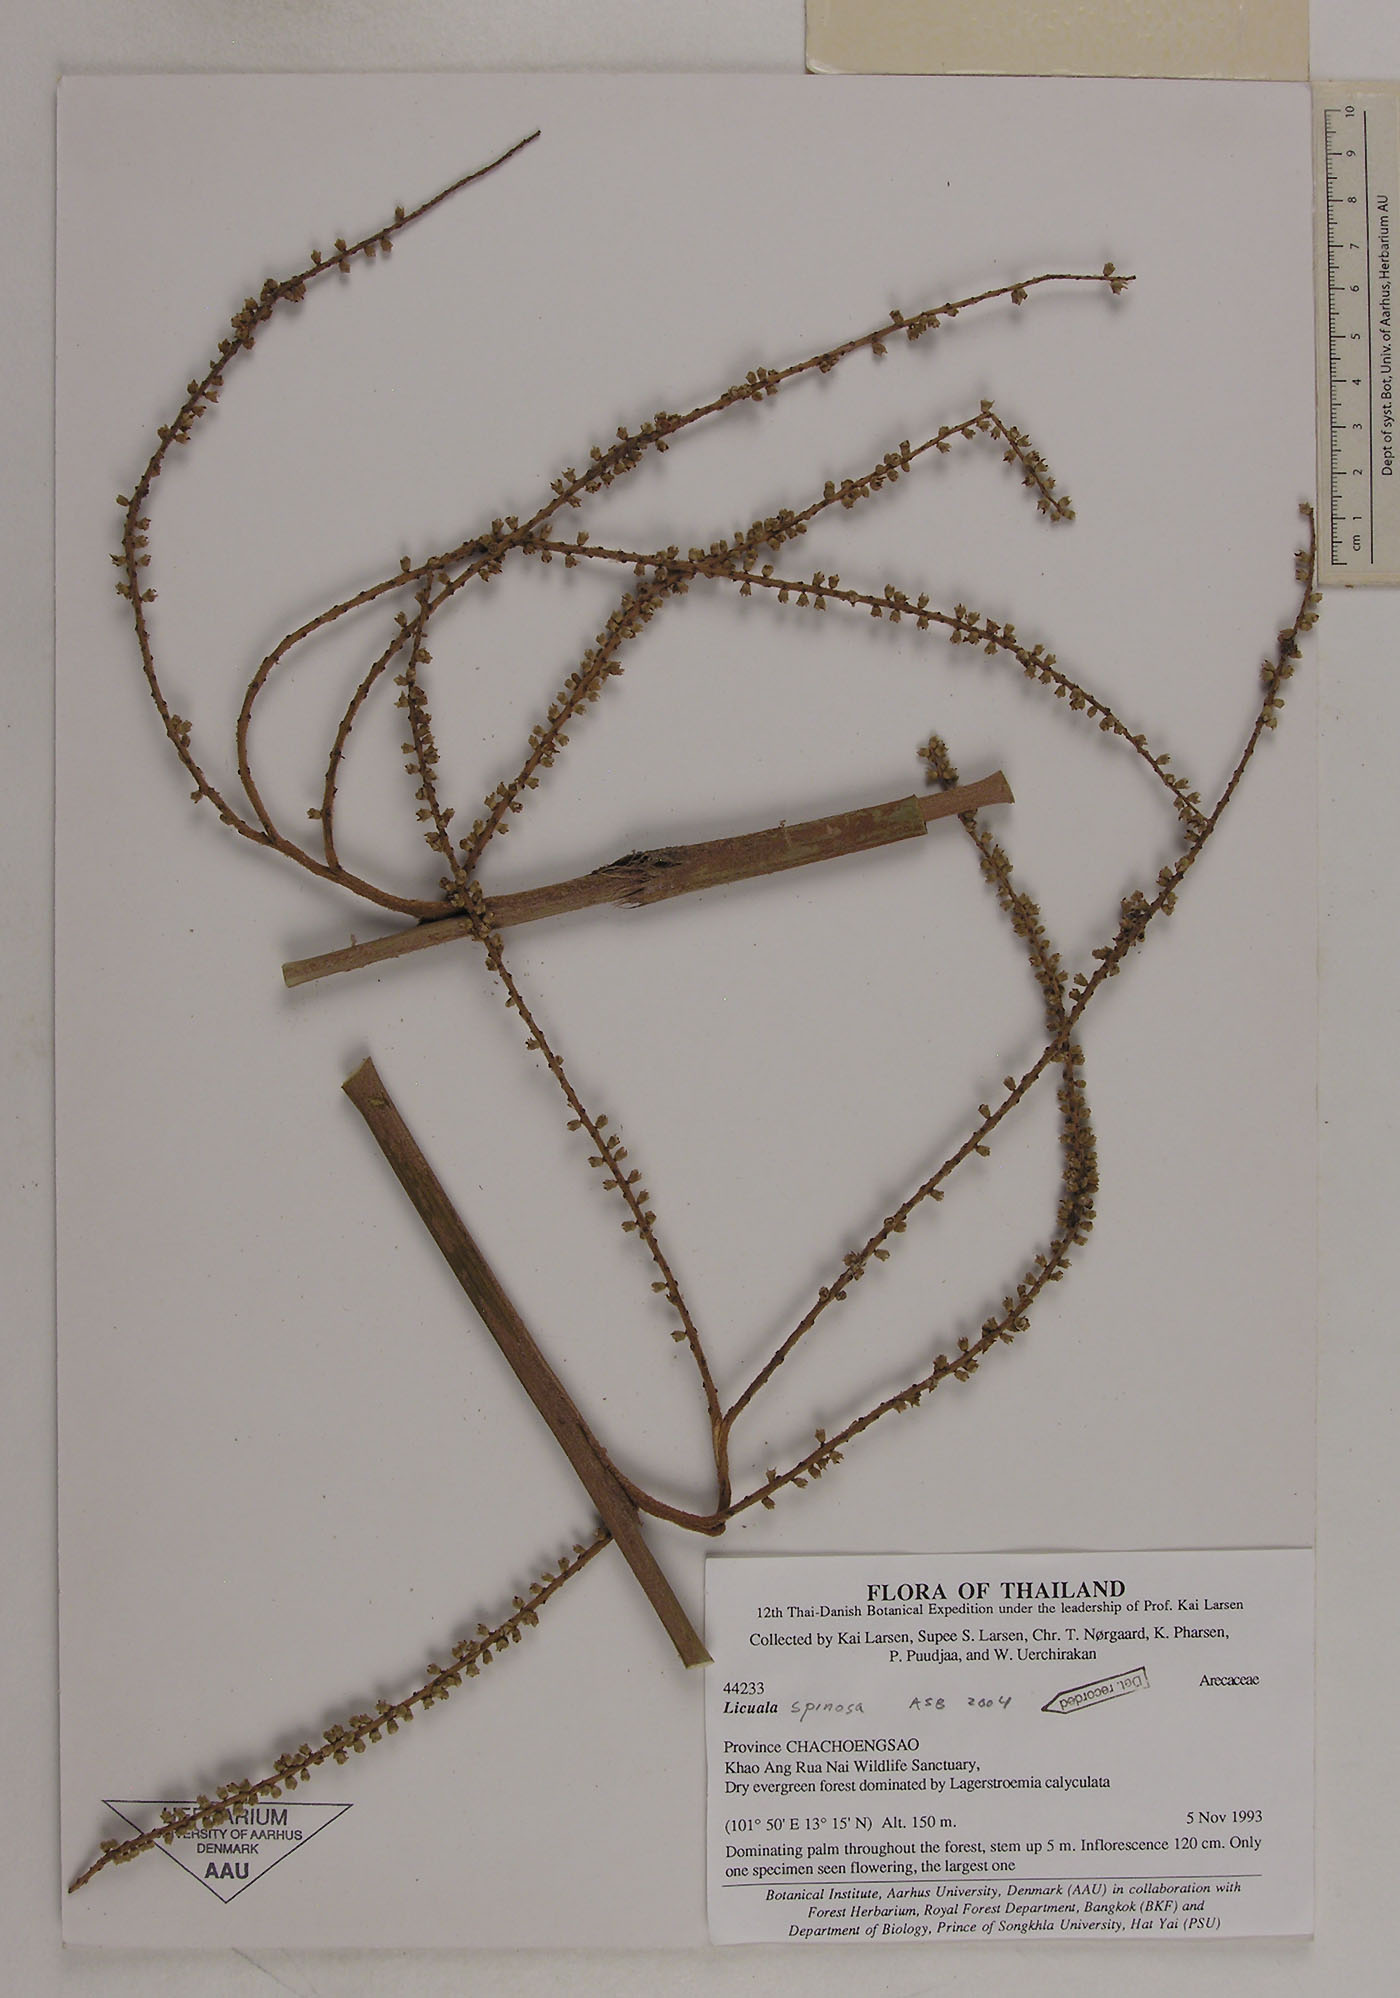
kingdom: Plantae
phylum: Tracheophyta
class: Liliopsida
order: Arecales
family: Arecaceae
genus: Licuala
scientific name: Licuala spinosa
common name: Mangrove fan palm
